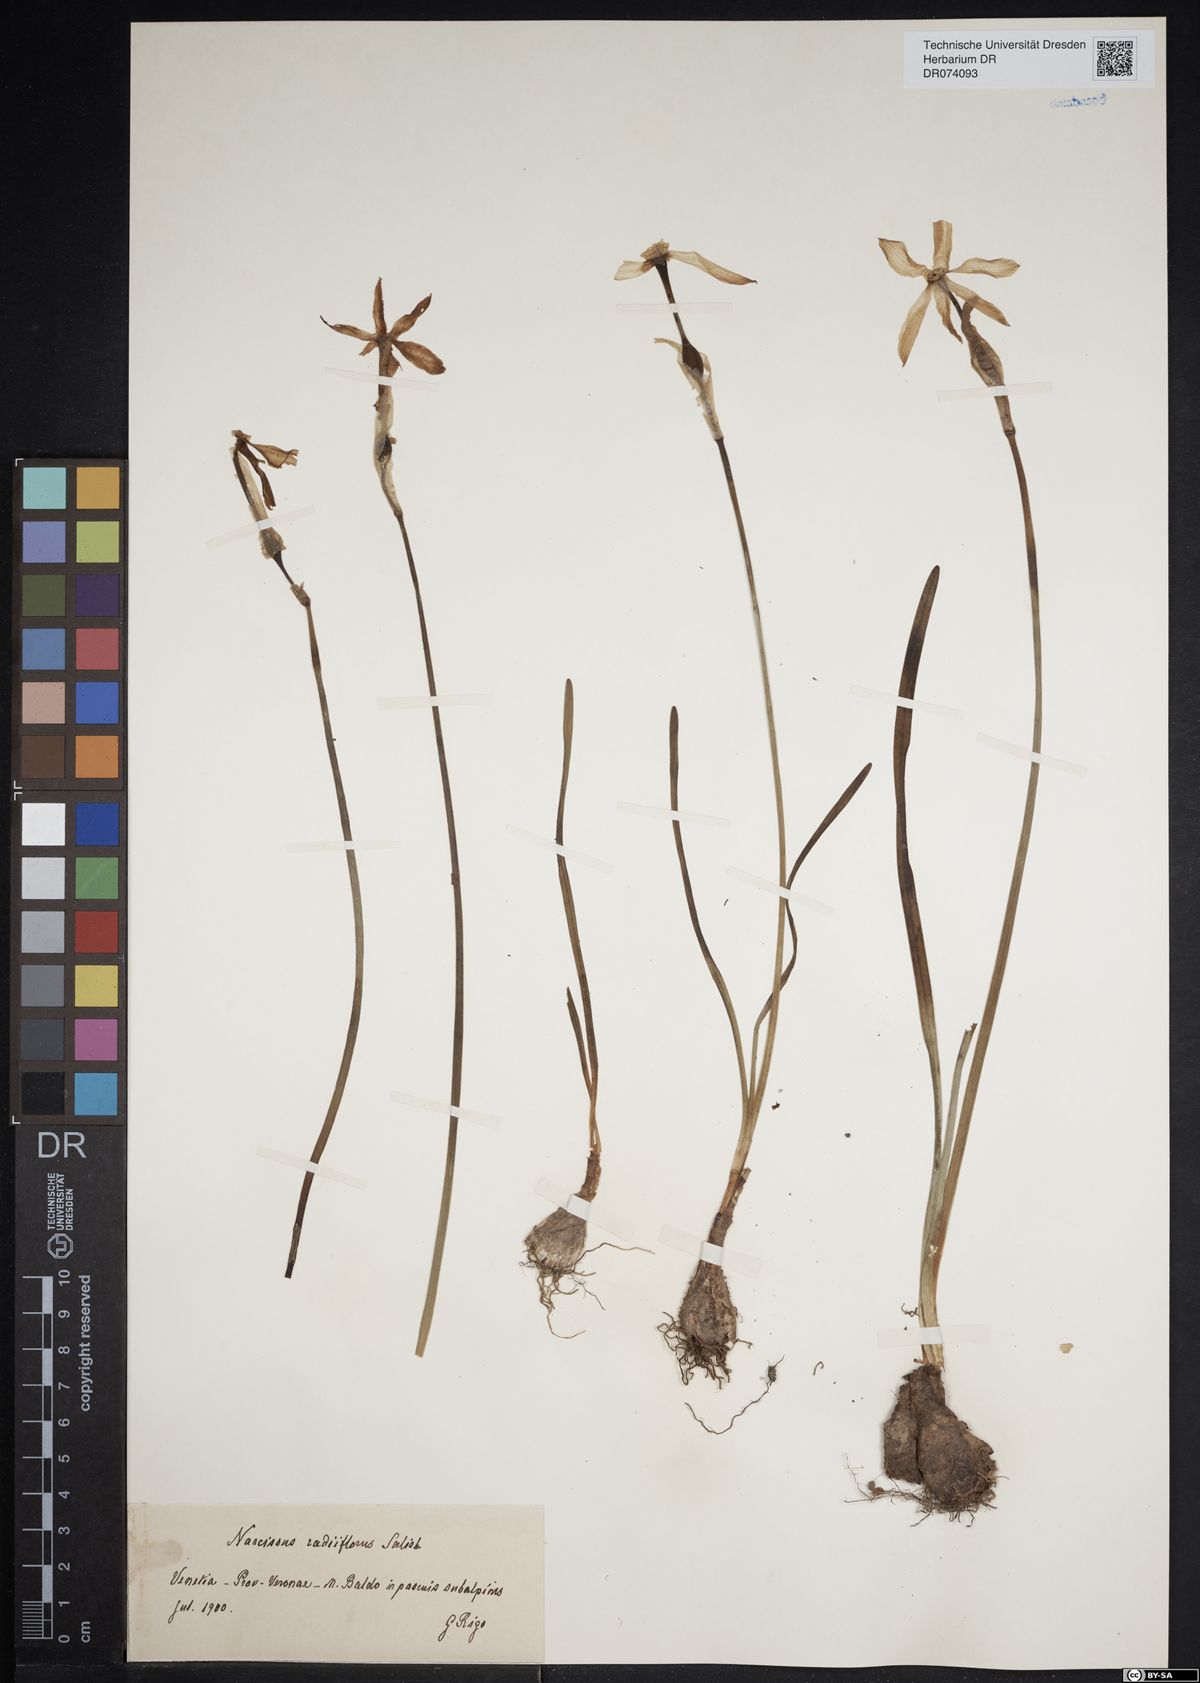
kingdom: Plantae
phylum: Tracheophyta
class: Liliopsida
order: Asparagales
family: Amaryllidaceae
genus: Narcissus
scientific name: Narcissus poeticus
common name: Pheasant's-eye daffodil
